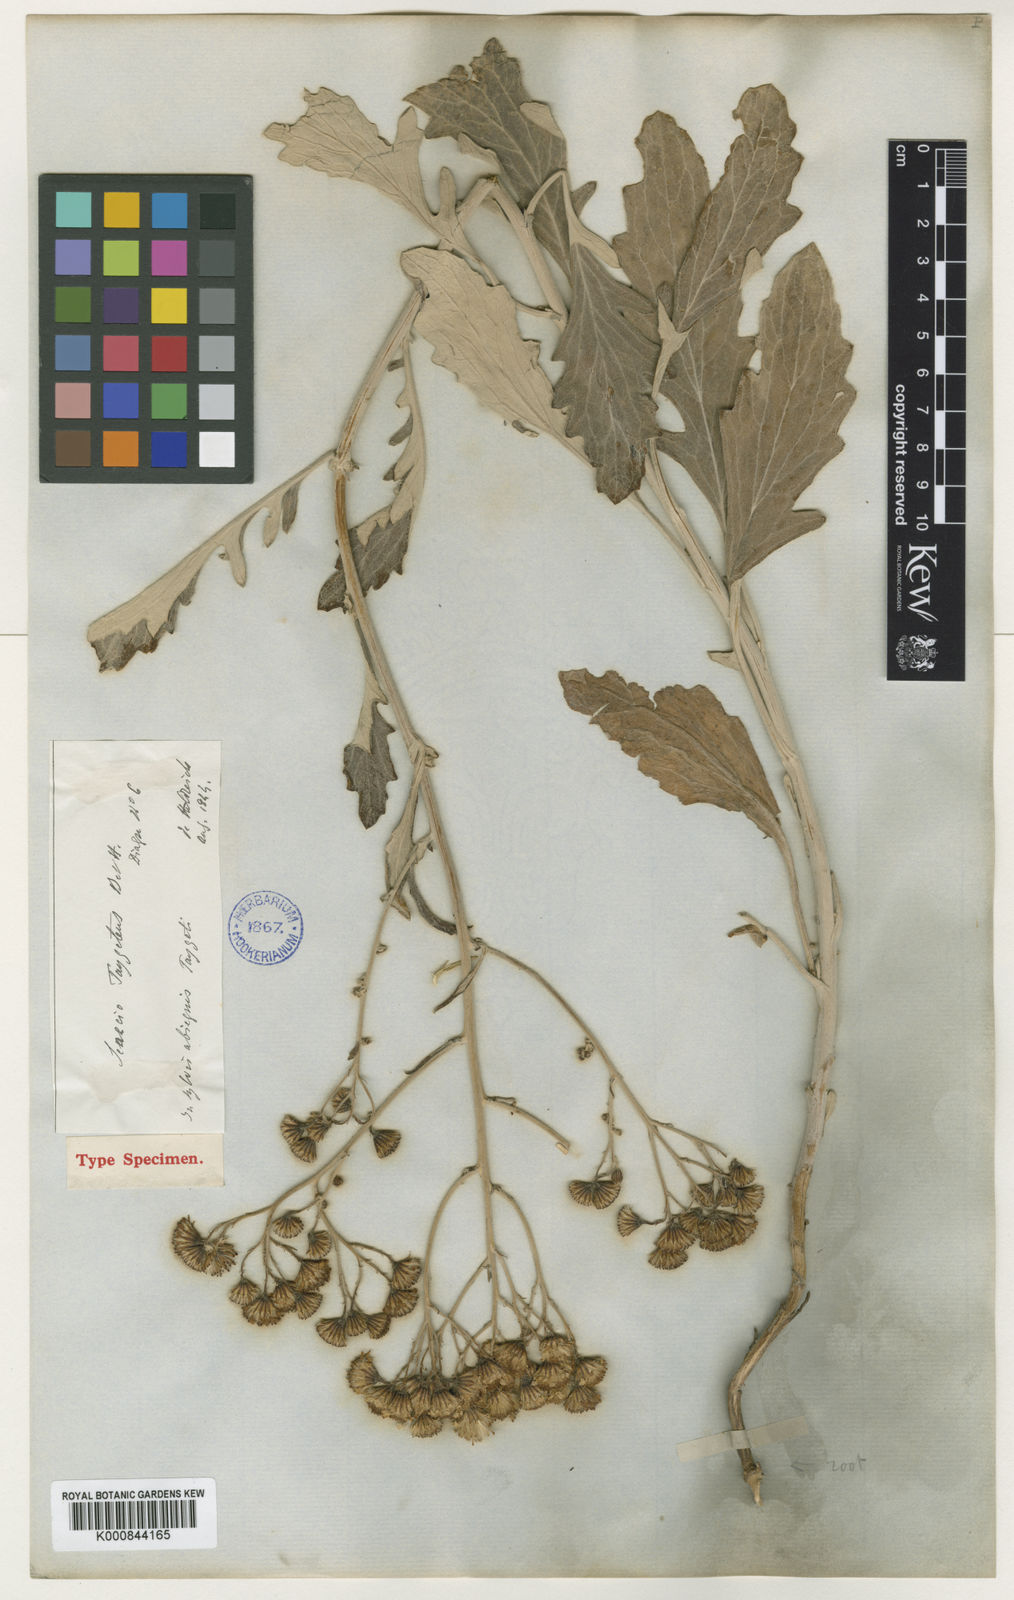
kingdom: Plantae
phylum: Tracheophyta
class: Magnoliopsida
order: Asterales
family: Asteraceae
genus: Jacobaea
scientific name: Jacobaea ambigua
